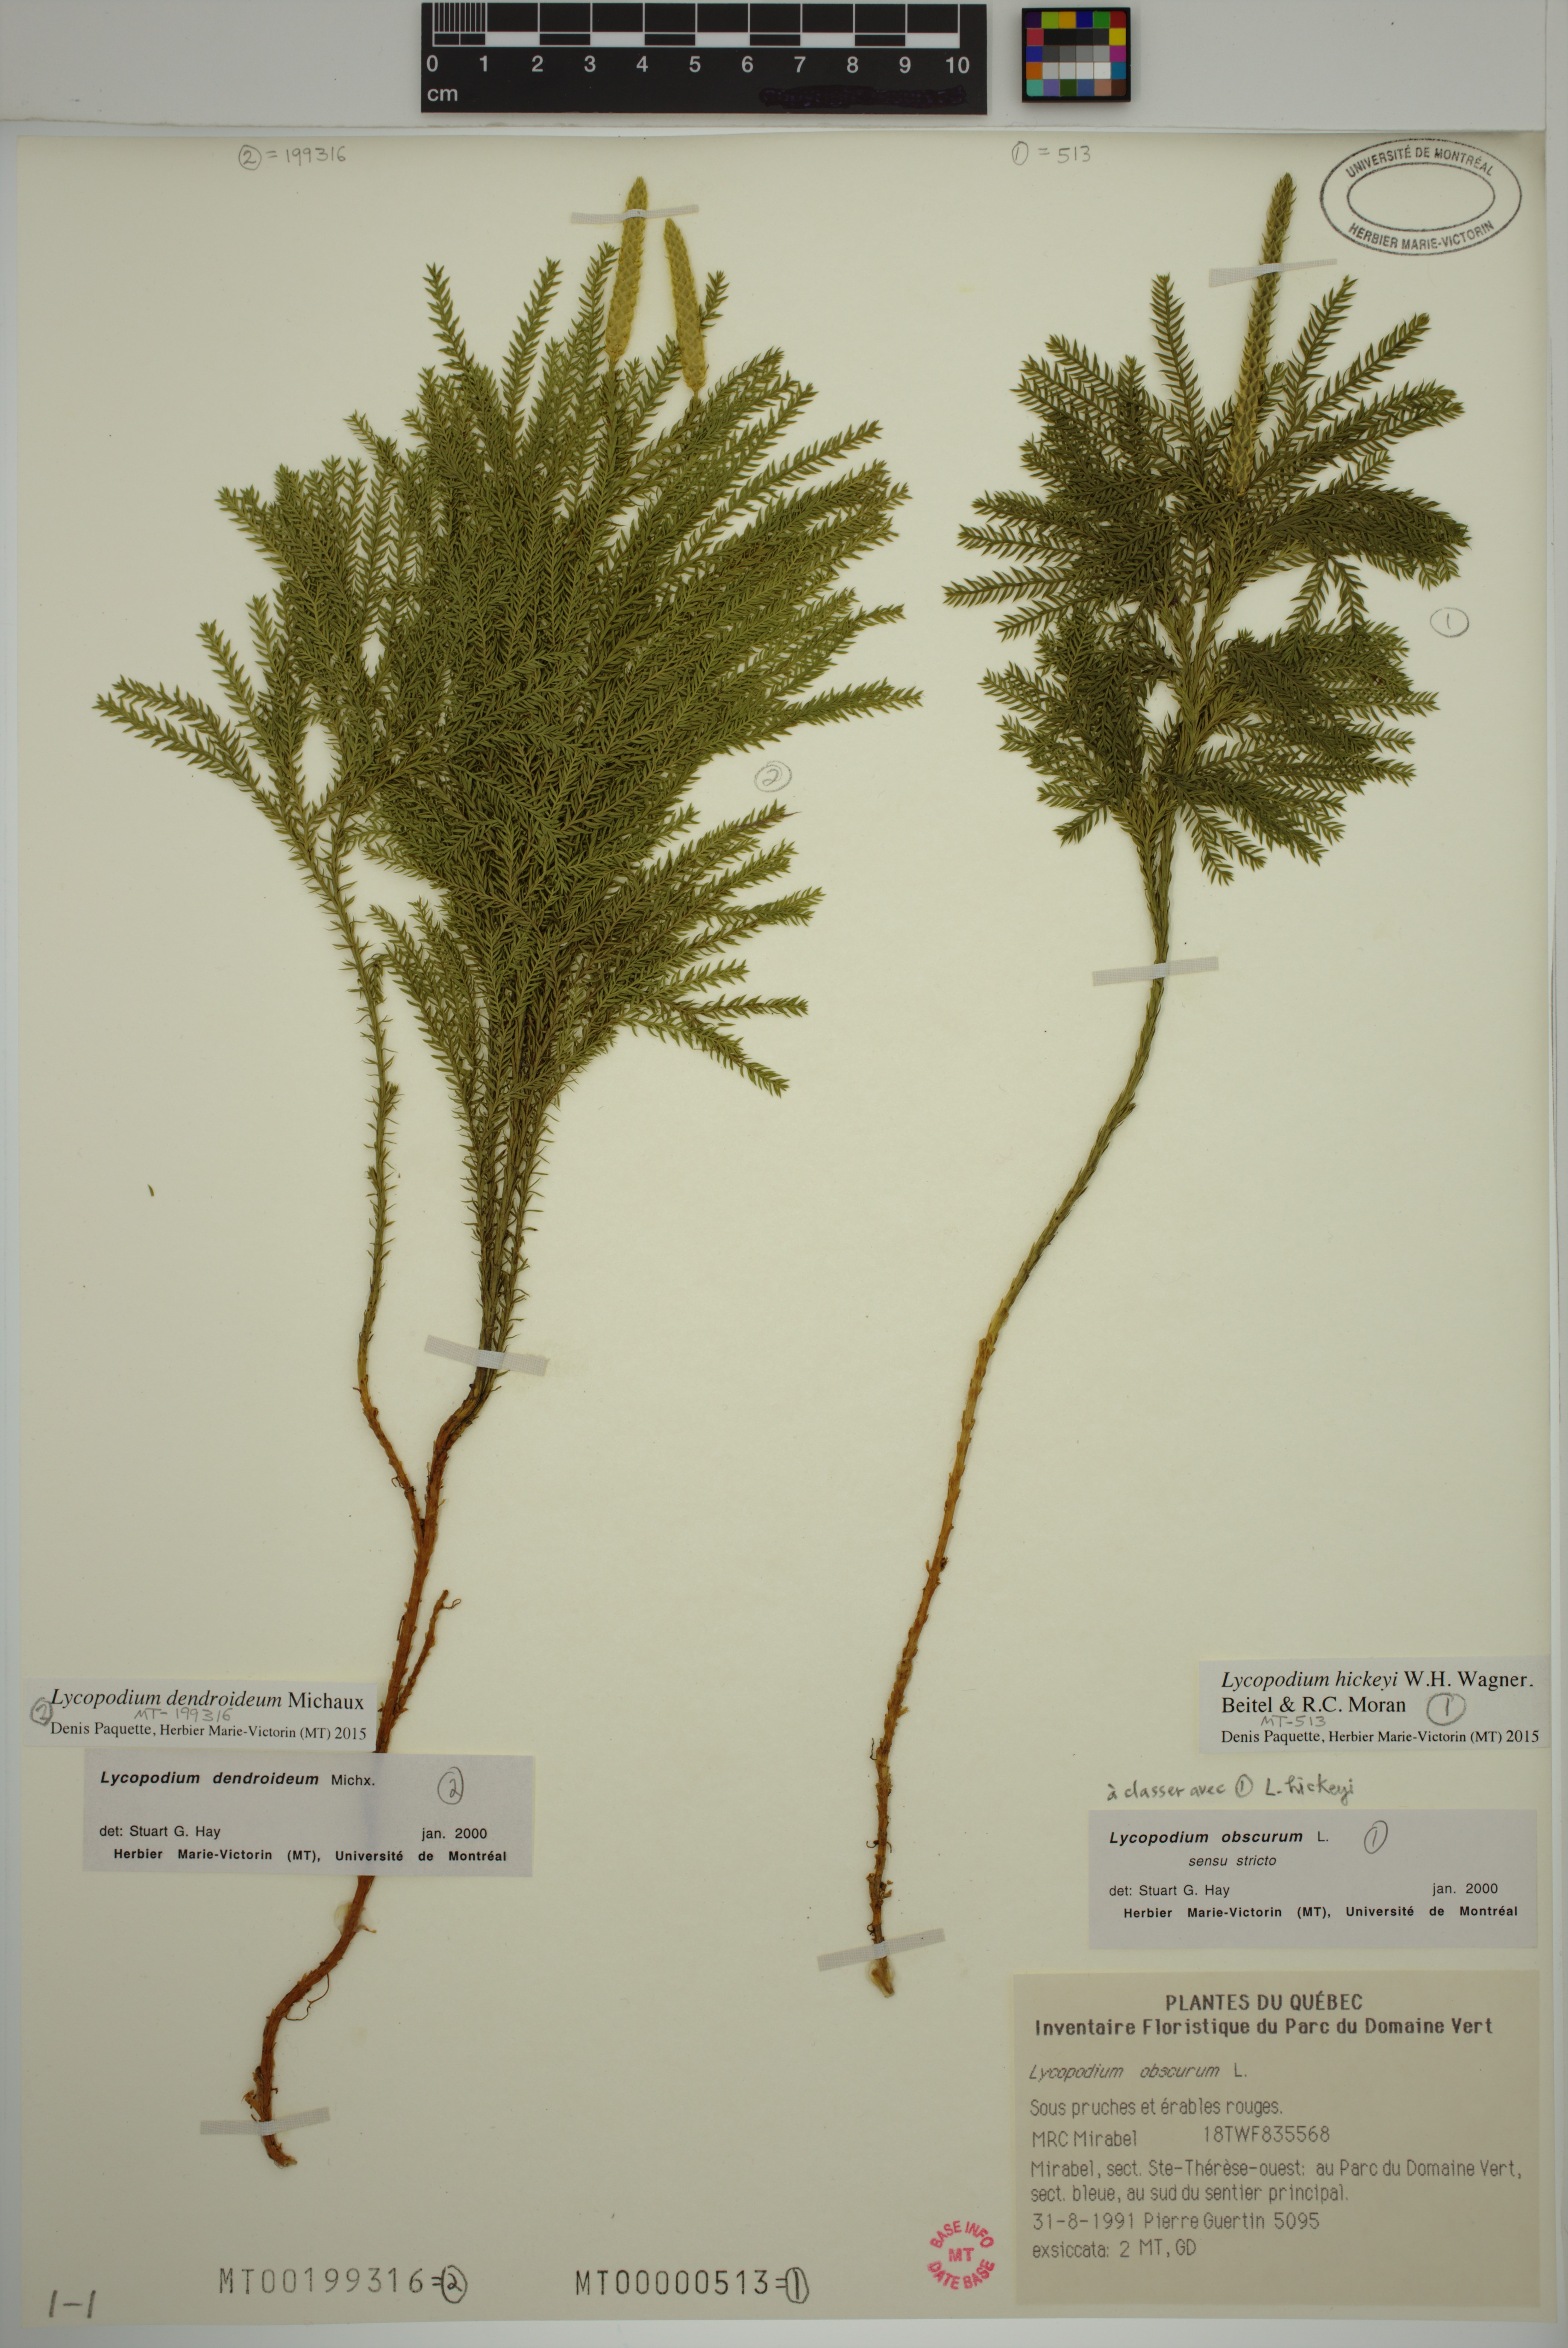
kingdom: Plantae
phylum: Tracheophyta
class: Lycopodiopsida
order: Lycopodiales
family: Lycopodiaceae
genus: Dendrolycopodium
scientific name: Dendrolycopodium hickeyi
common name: Hickey's clubmoss
